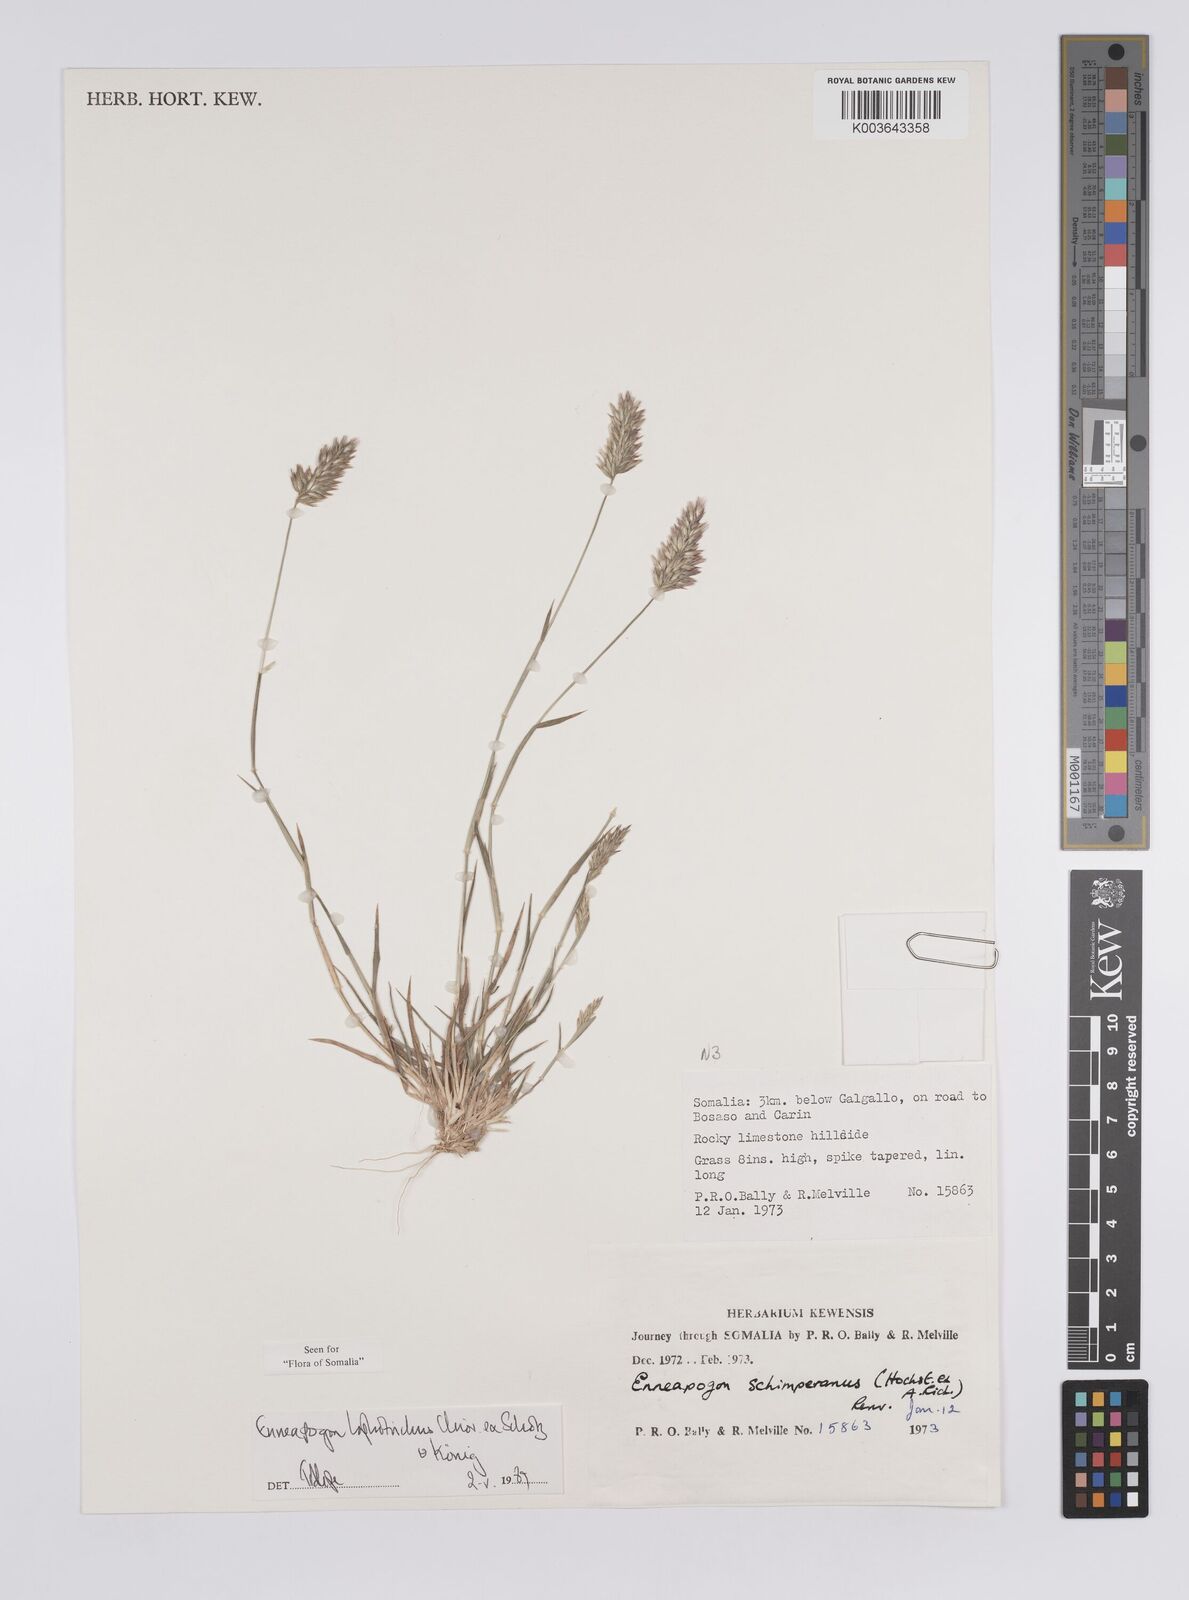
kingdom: Plantae
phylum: Tracheophyta
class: Liliopsida
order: Poales
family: Poaceae
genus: Enneapogon
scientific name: Enneapogon lophotrichus
